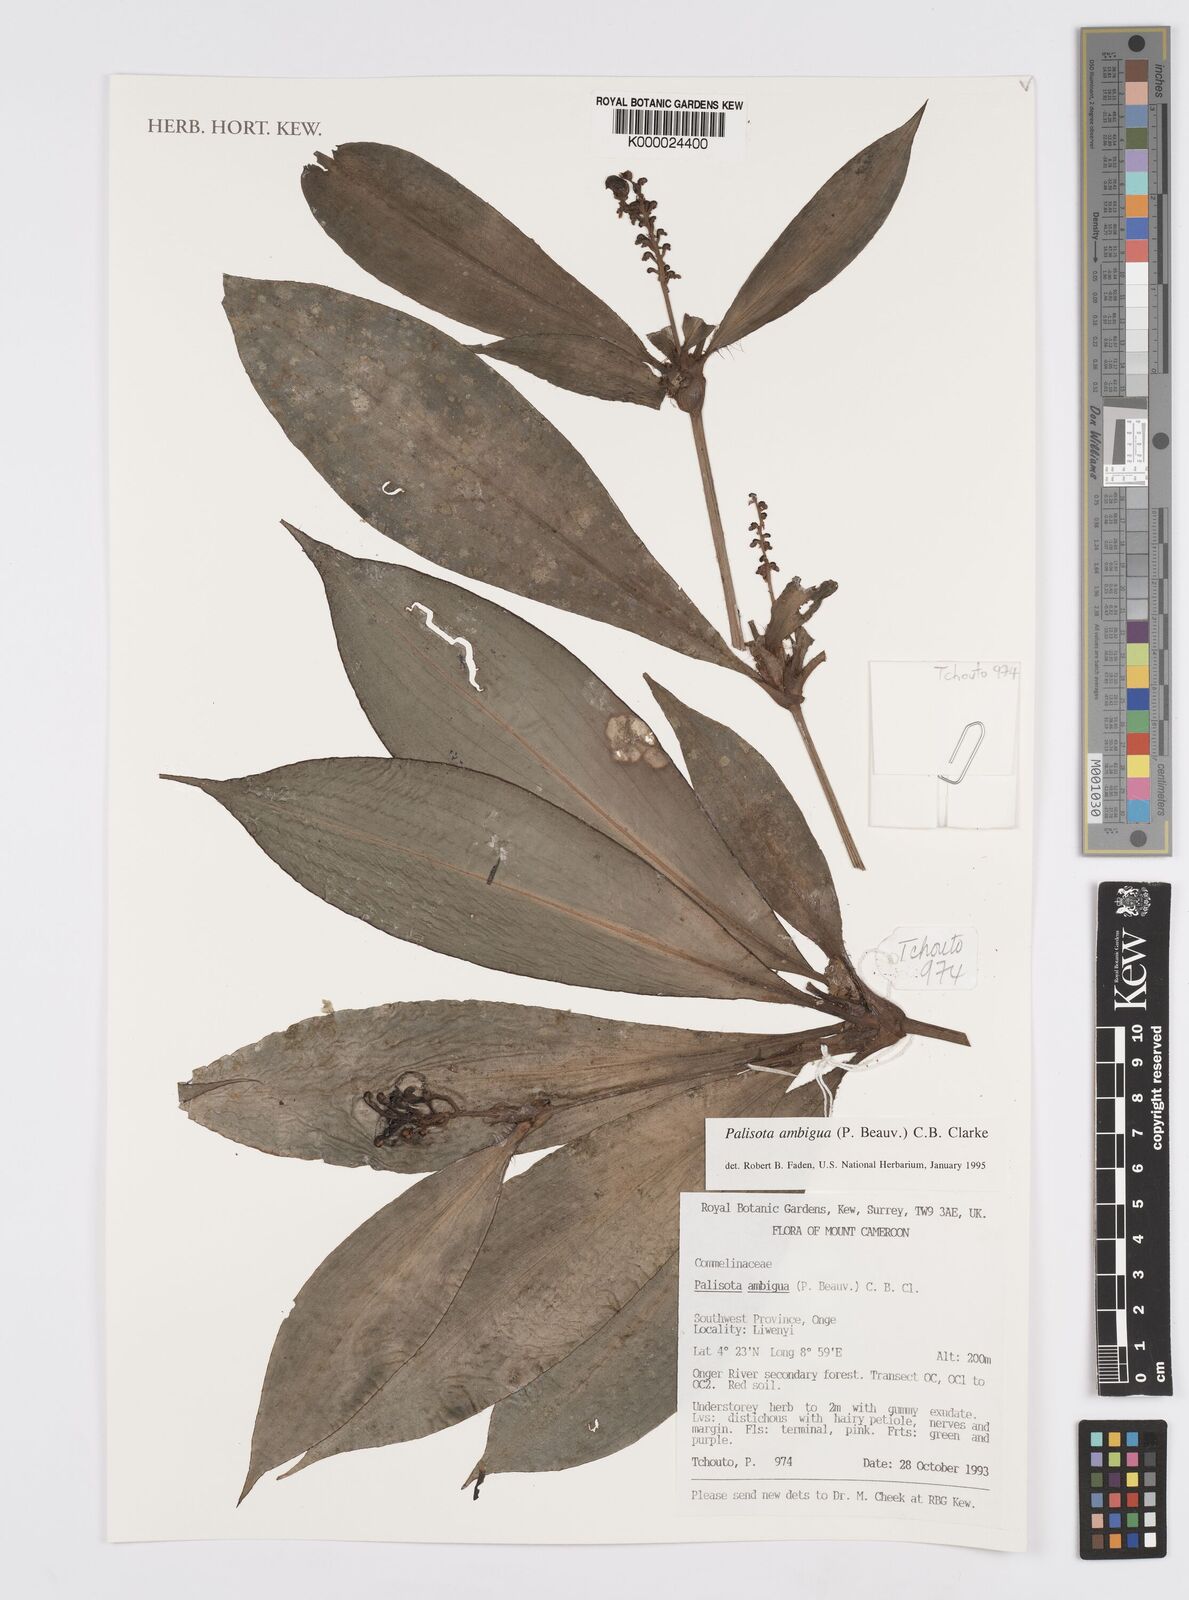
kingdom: Plantae
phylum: Tracheophyta
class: Liliopsida
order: Commelinales
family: Commelinaceae
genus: Palisota
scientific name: Palisota ambigua
